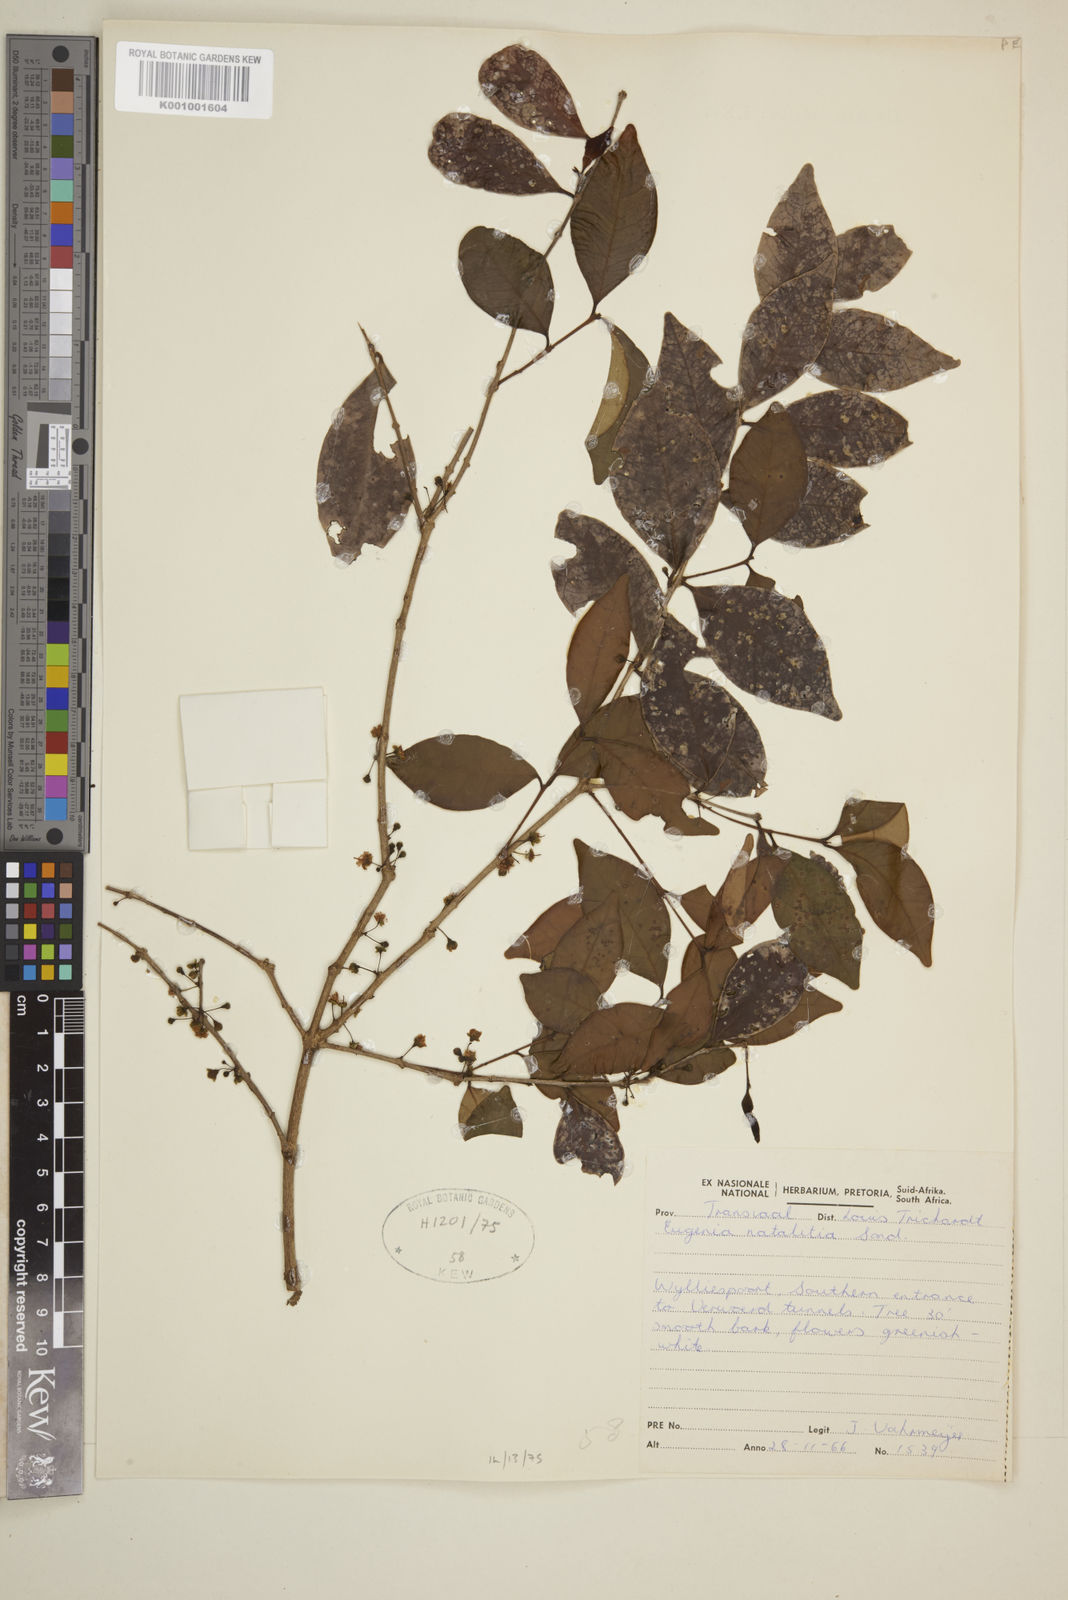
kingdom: Plantae
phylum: Tracheophyta
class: Magnoliopsida
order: Myrtales
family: Myrtaceae
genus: Eugenia
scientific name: Eugenia natalitia
